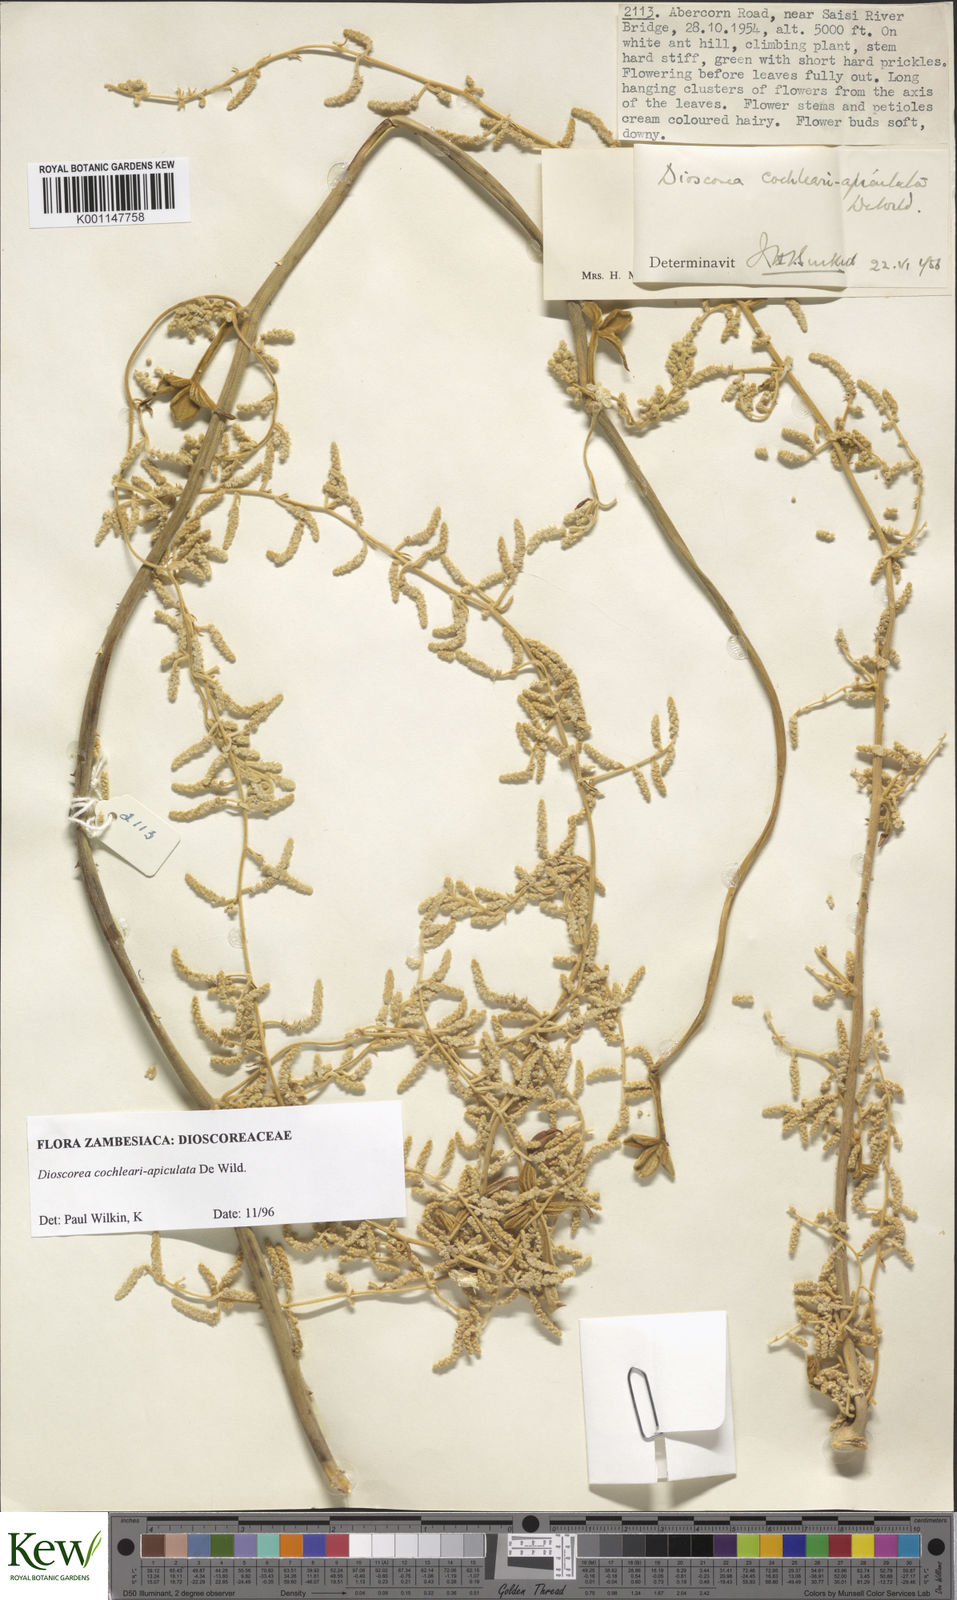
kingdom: Plantae
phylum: Tracheophyta
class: Liliopsida
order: Dioscoreales
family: Dioscoreaceae
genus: Dioscorea
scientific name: Dioscorea cochleariapiculata
